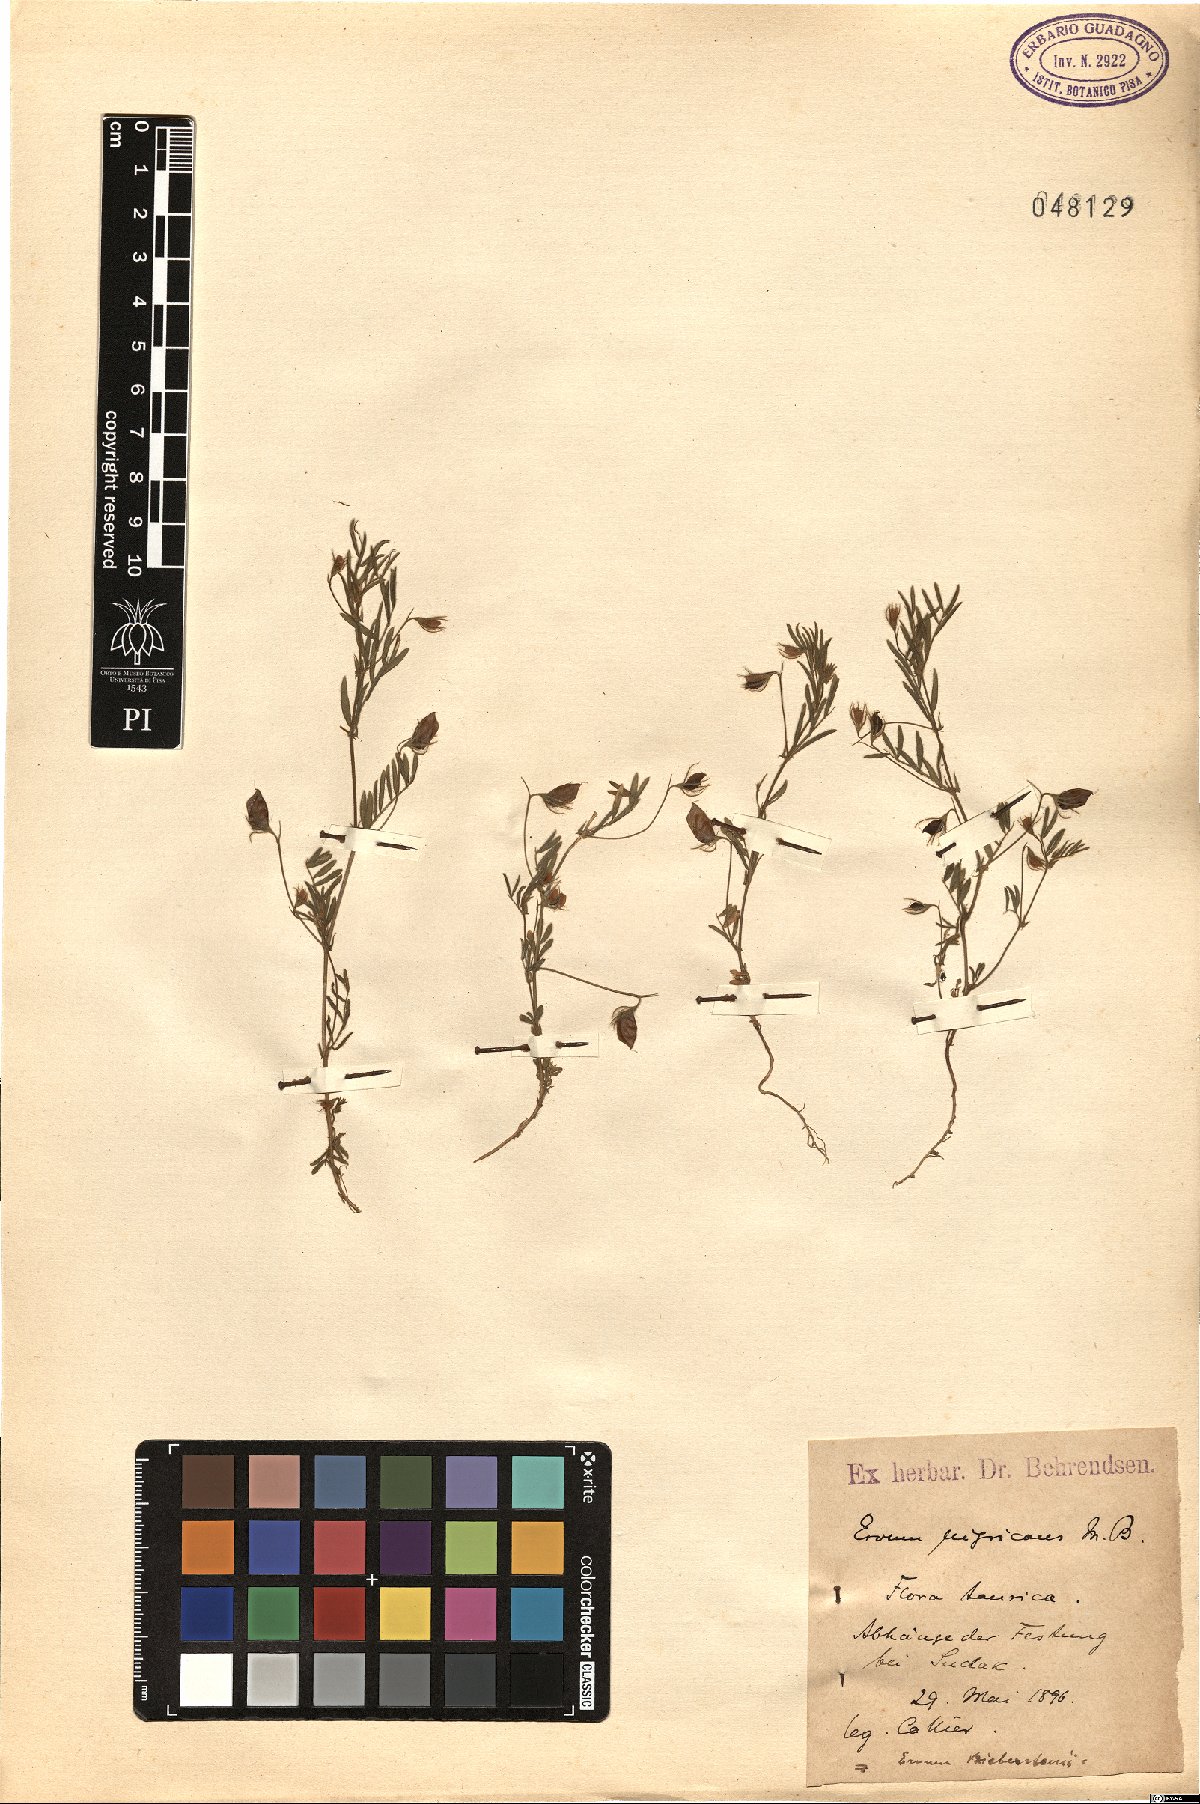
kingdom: Plantae
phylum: Tracheophyta
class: Magnoliopsida
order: Fabales
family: Fabaceae
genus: Vicia
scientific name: Vicia lentoides
